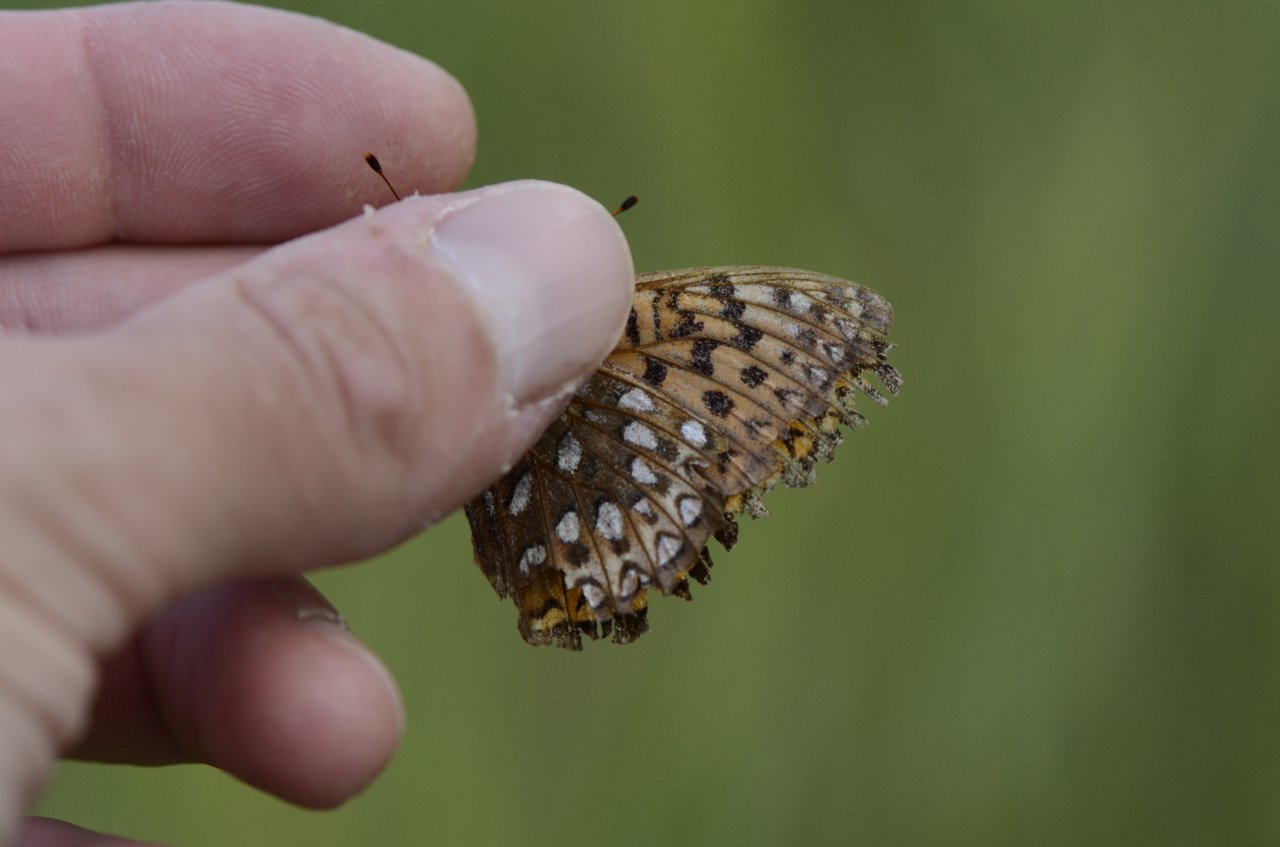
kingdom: Animalia
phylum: Arthropoda
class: Insecta
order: Lepidoptera
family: Nymphalidae
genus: Speyeria
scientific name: Speyeria atlantis
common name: Atlantis Fritillary
